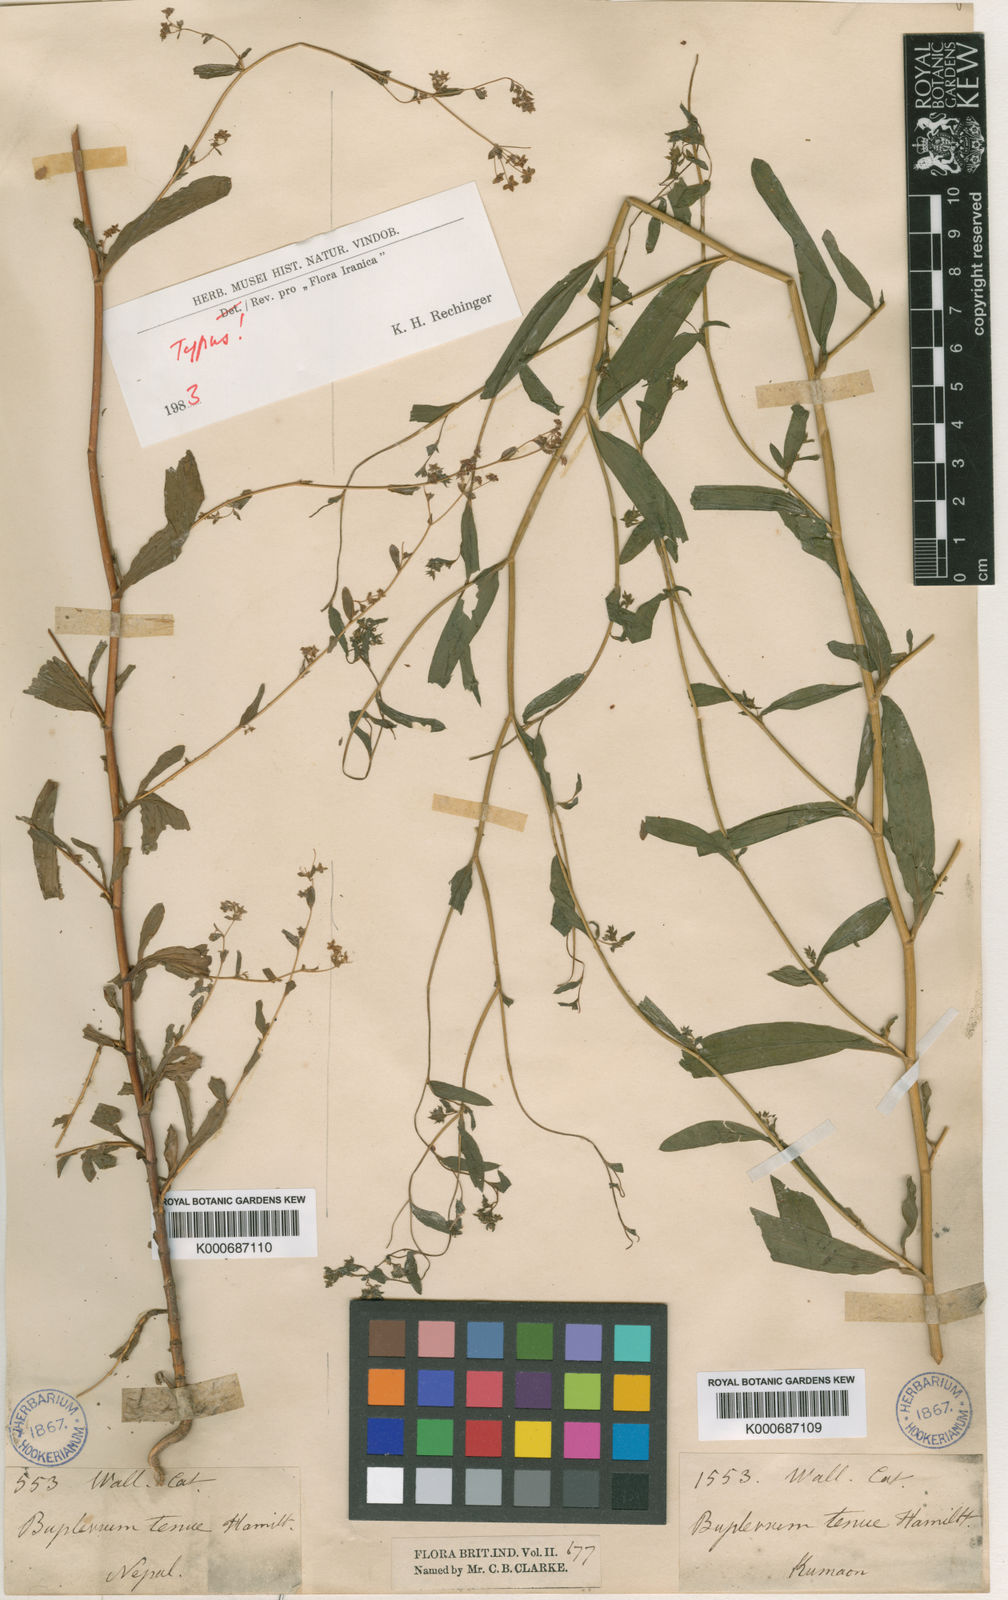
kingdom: Plantae
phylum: Tracheophyta
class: Magnoliopsida
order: Apiales
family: Apiaceae
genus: Bupleurum
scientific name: Bupleurum
